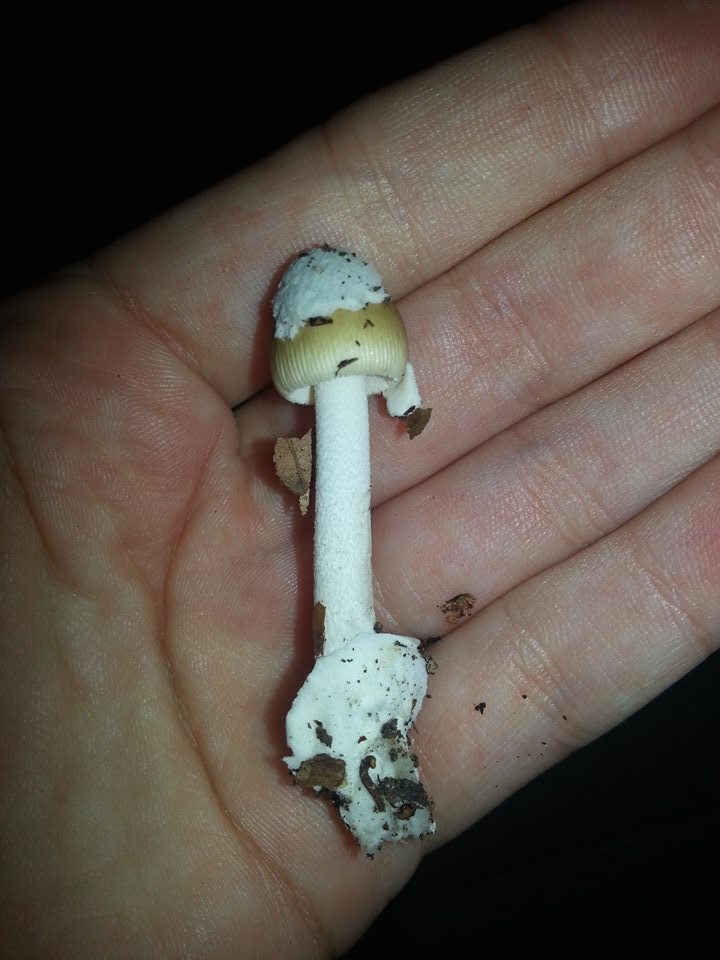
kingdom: Fungi
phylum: Basidiomycota
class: Agaricomycetes
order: Agaricales
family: Amanitaceae
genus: Amanita
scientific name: Amanita olivaceogrisea
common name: olivengrå kam-fluesvamp
